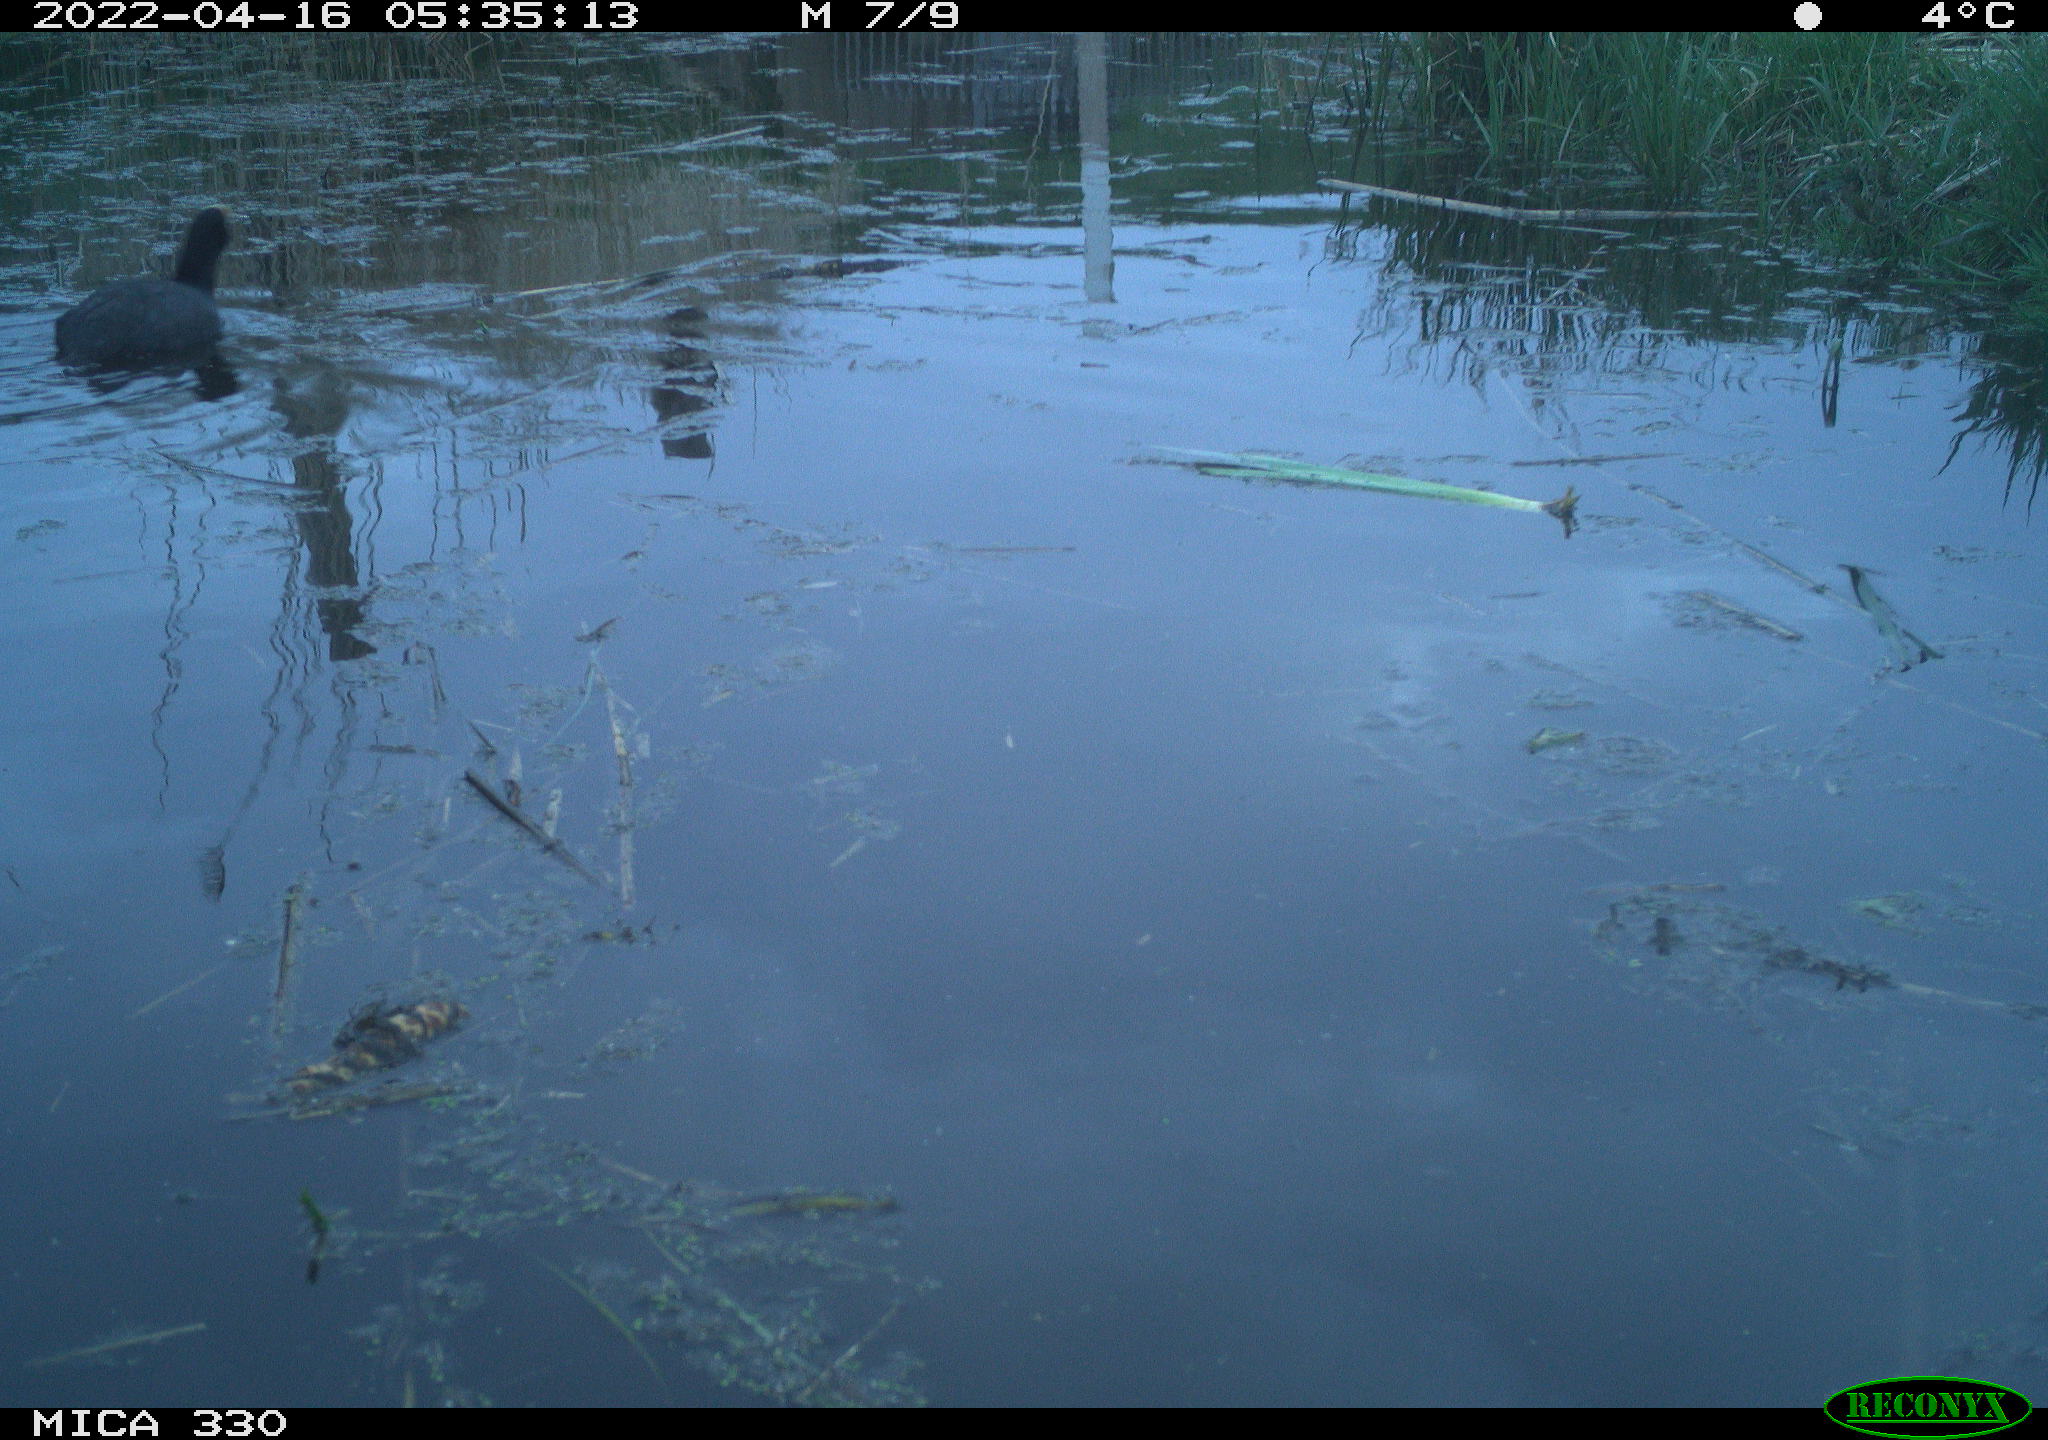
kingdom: Animalia
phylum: Chordata
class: Aves
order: Gruiformes
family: Rallidae
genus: Fulica
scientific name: Fulica atra
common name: Eurasian coot
